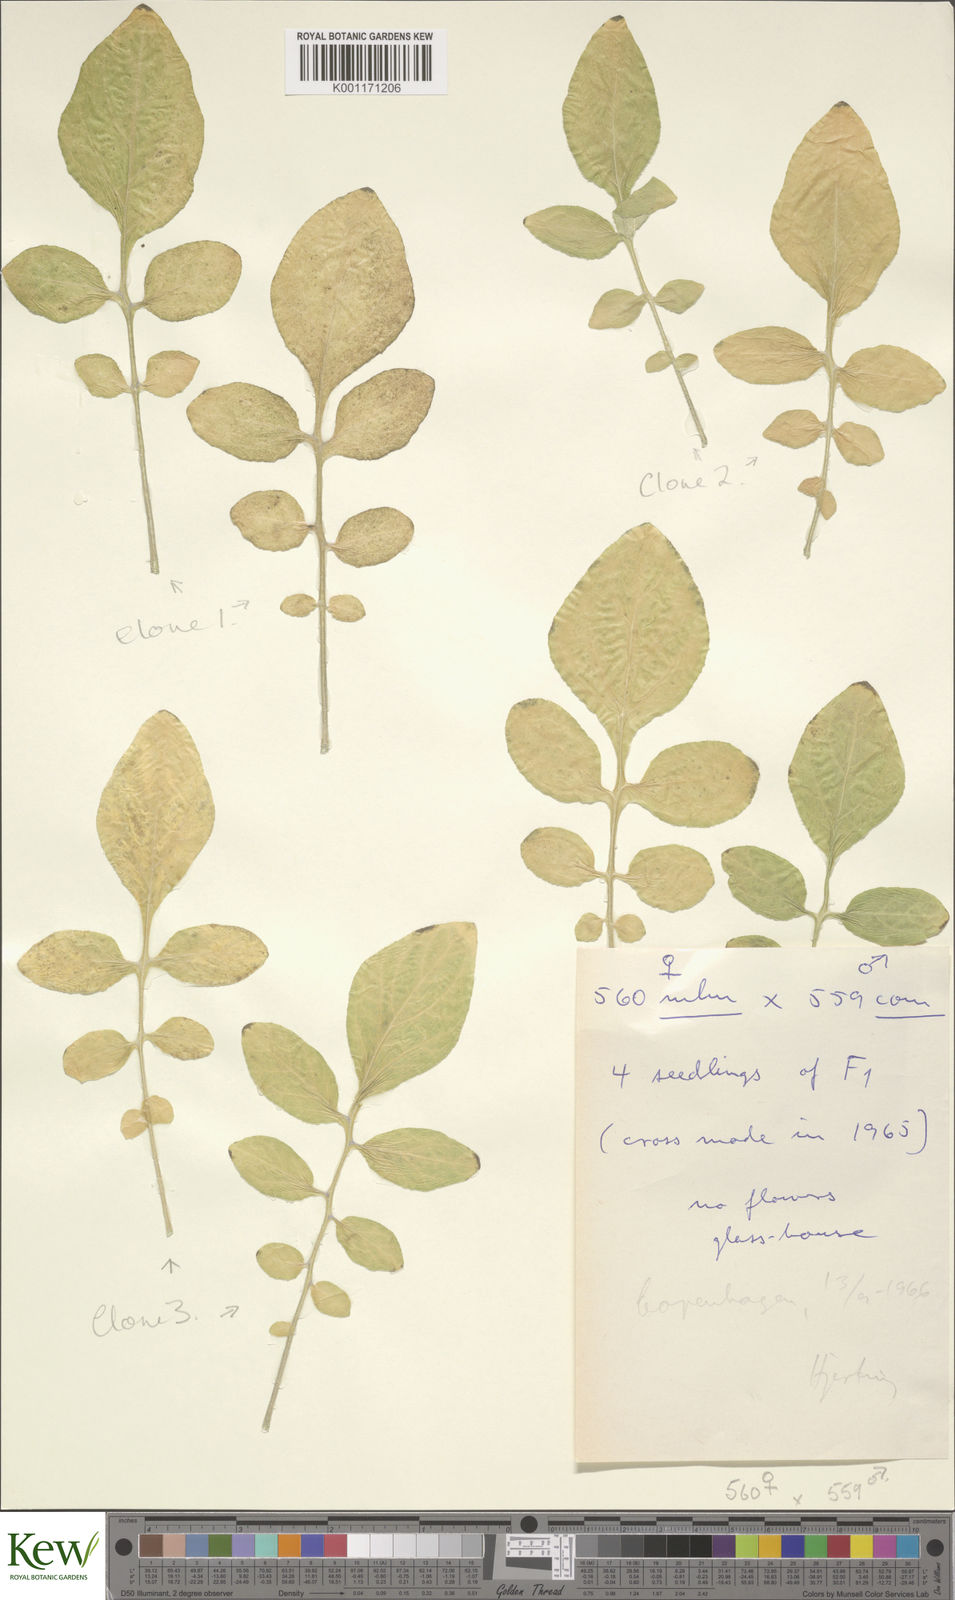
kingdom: Plantae
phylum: Tracheophyta
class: Magnoliopsida
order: Solanales
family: Solanaceae
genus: Solanum
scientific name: Solanum commersonii
